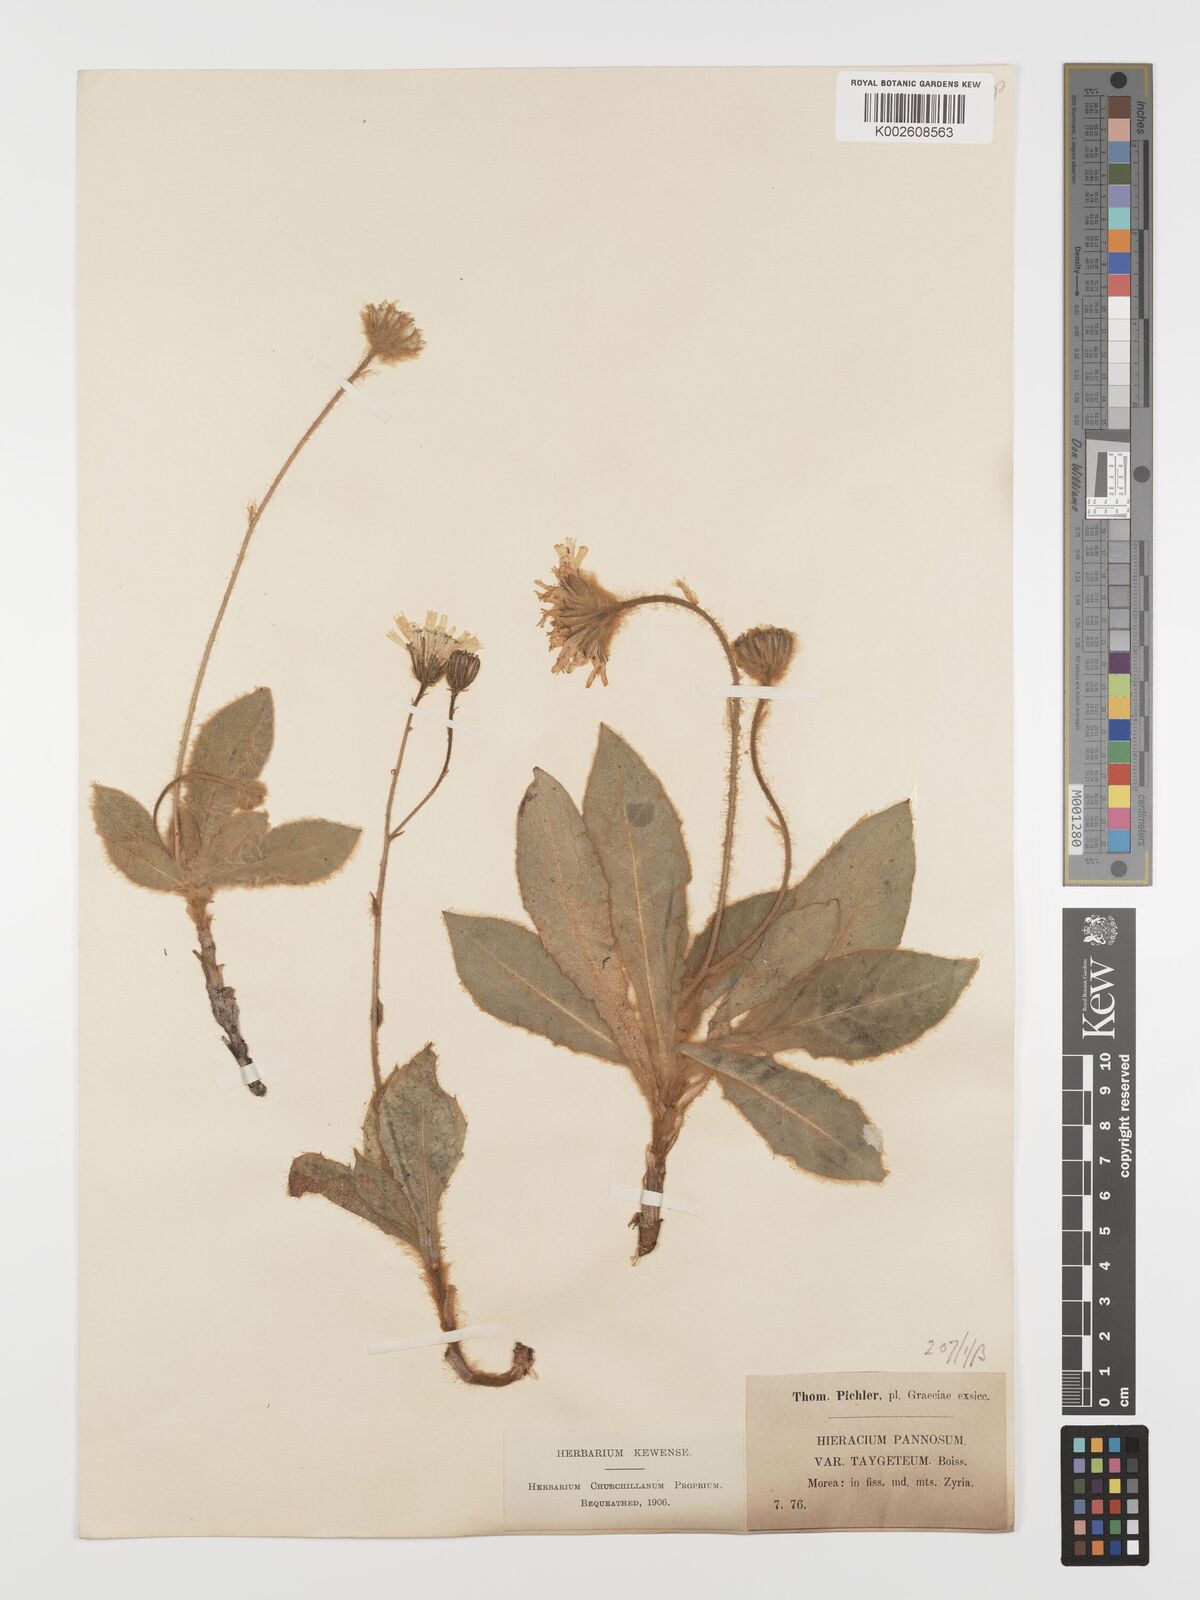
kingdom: Plantae
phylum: Tracheophyta
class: Magnoliopsida
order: Asterales
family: Asteraceae
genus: Hieracium
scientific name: Hieracium pannosum
